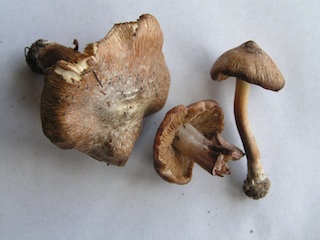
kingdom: Fungi
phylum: Basidiomycota
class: Agaricomycetes
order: Agaricales
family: Inocybaceae
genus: Inosperma
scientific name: Inosperma
